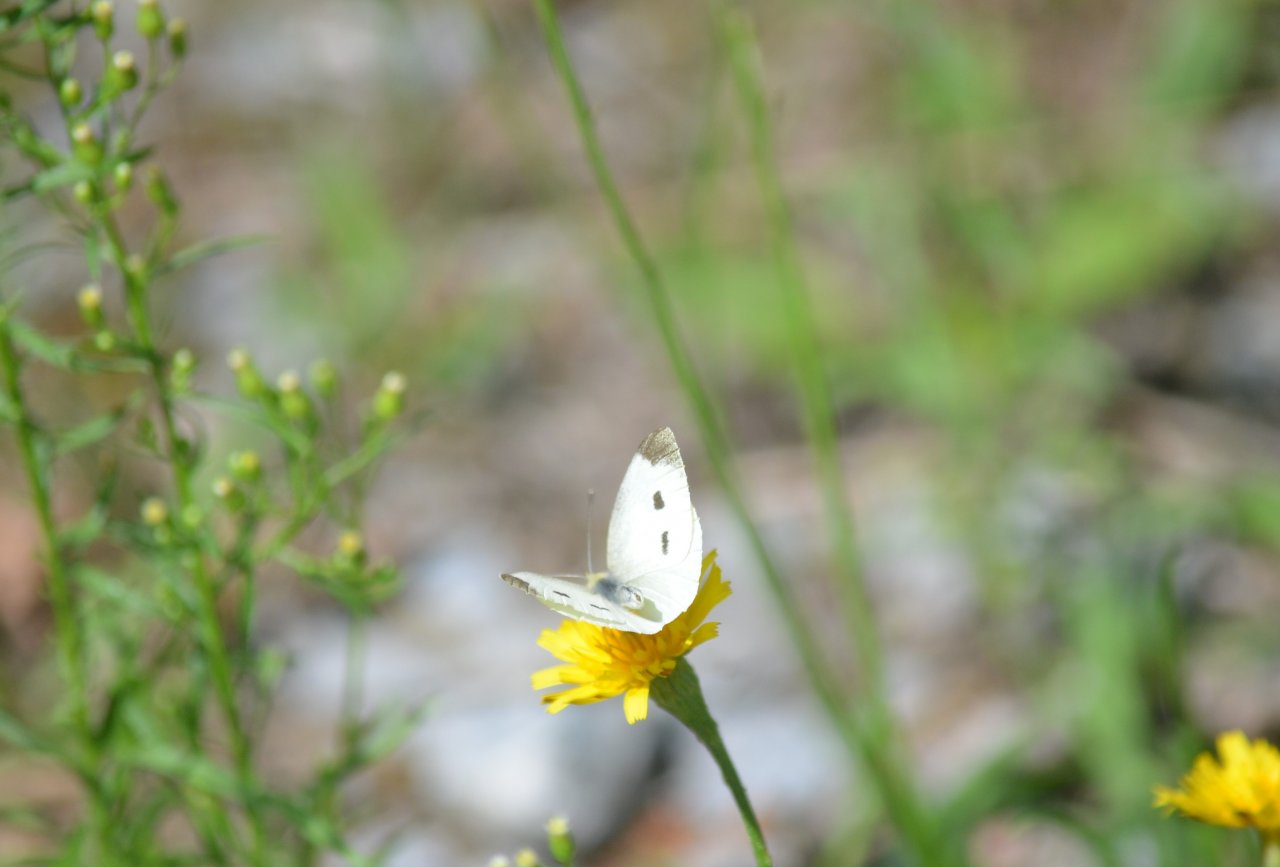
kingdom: Animalia
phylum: Arthropoda
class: Insecta
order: Lepidoptera
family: Pieridae
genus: Pieris
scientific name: Pieris rapae
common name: Cabbage White
